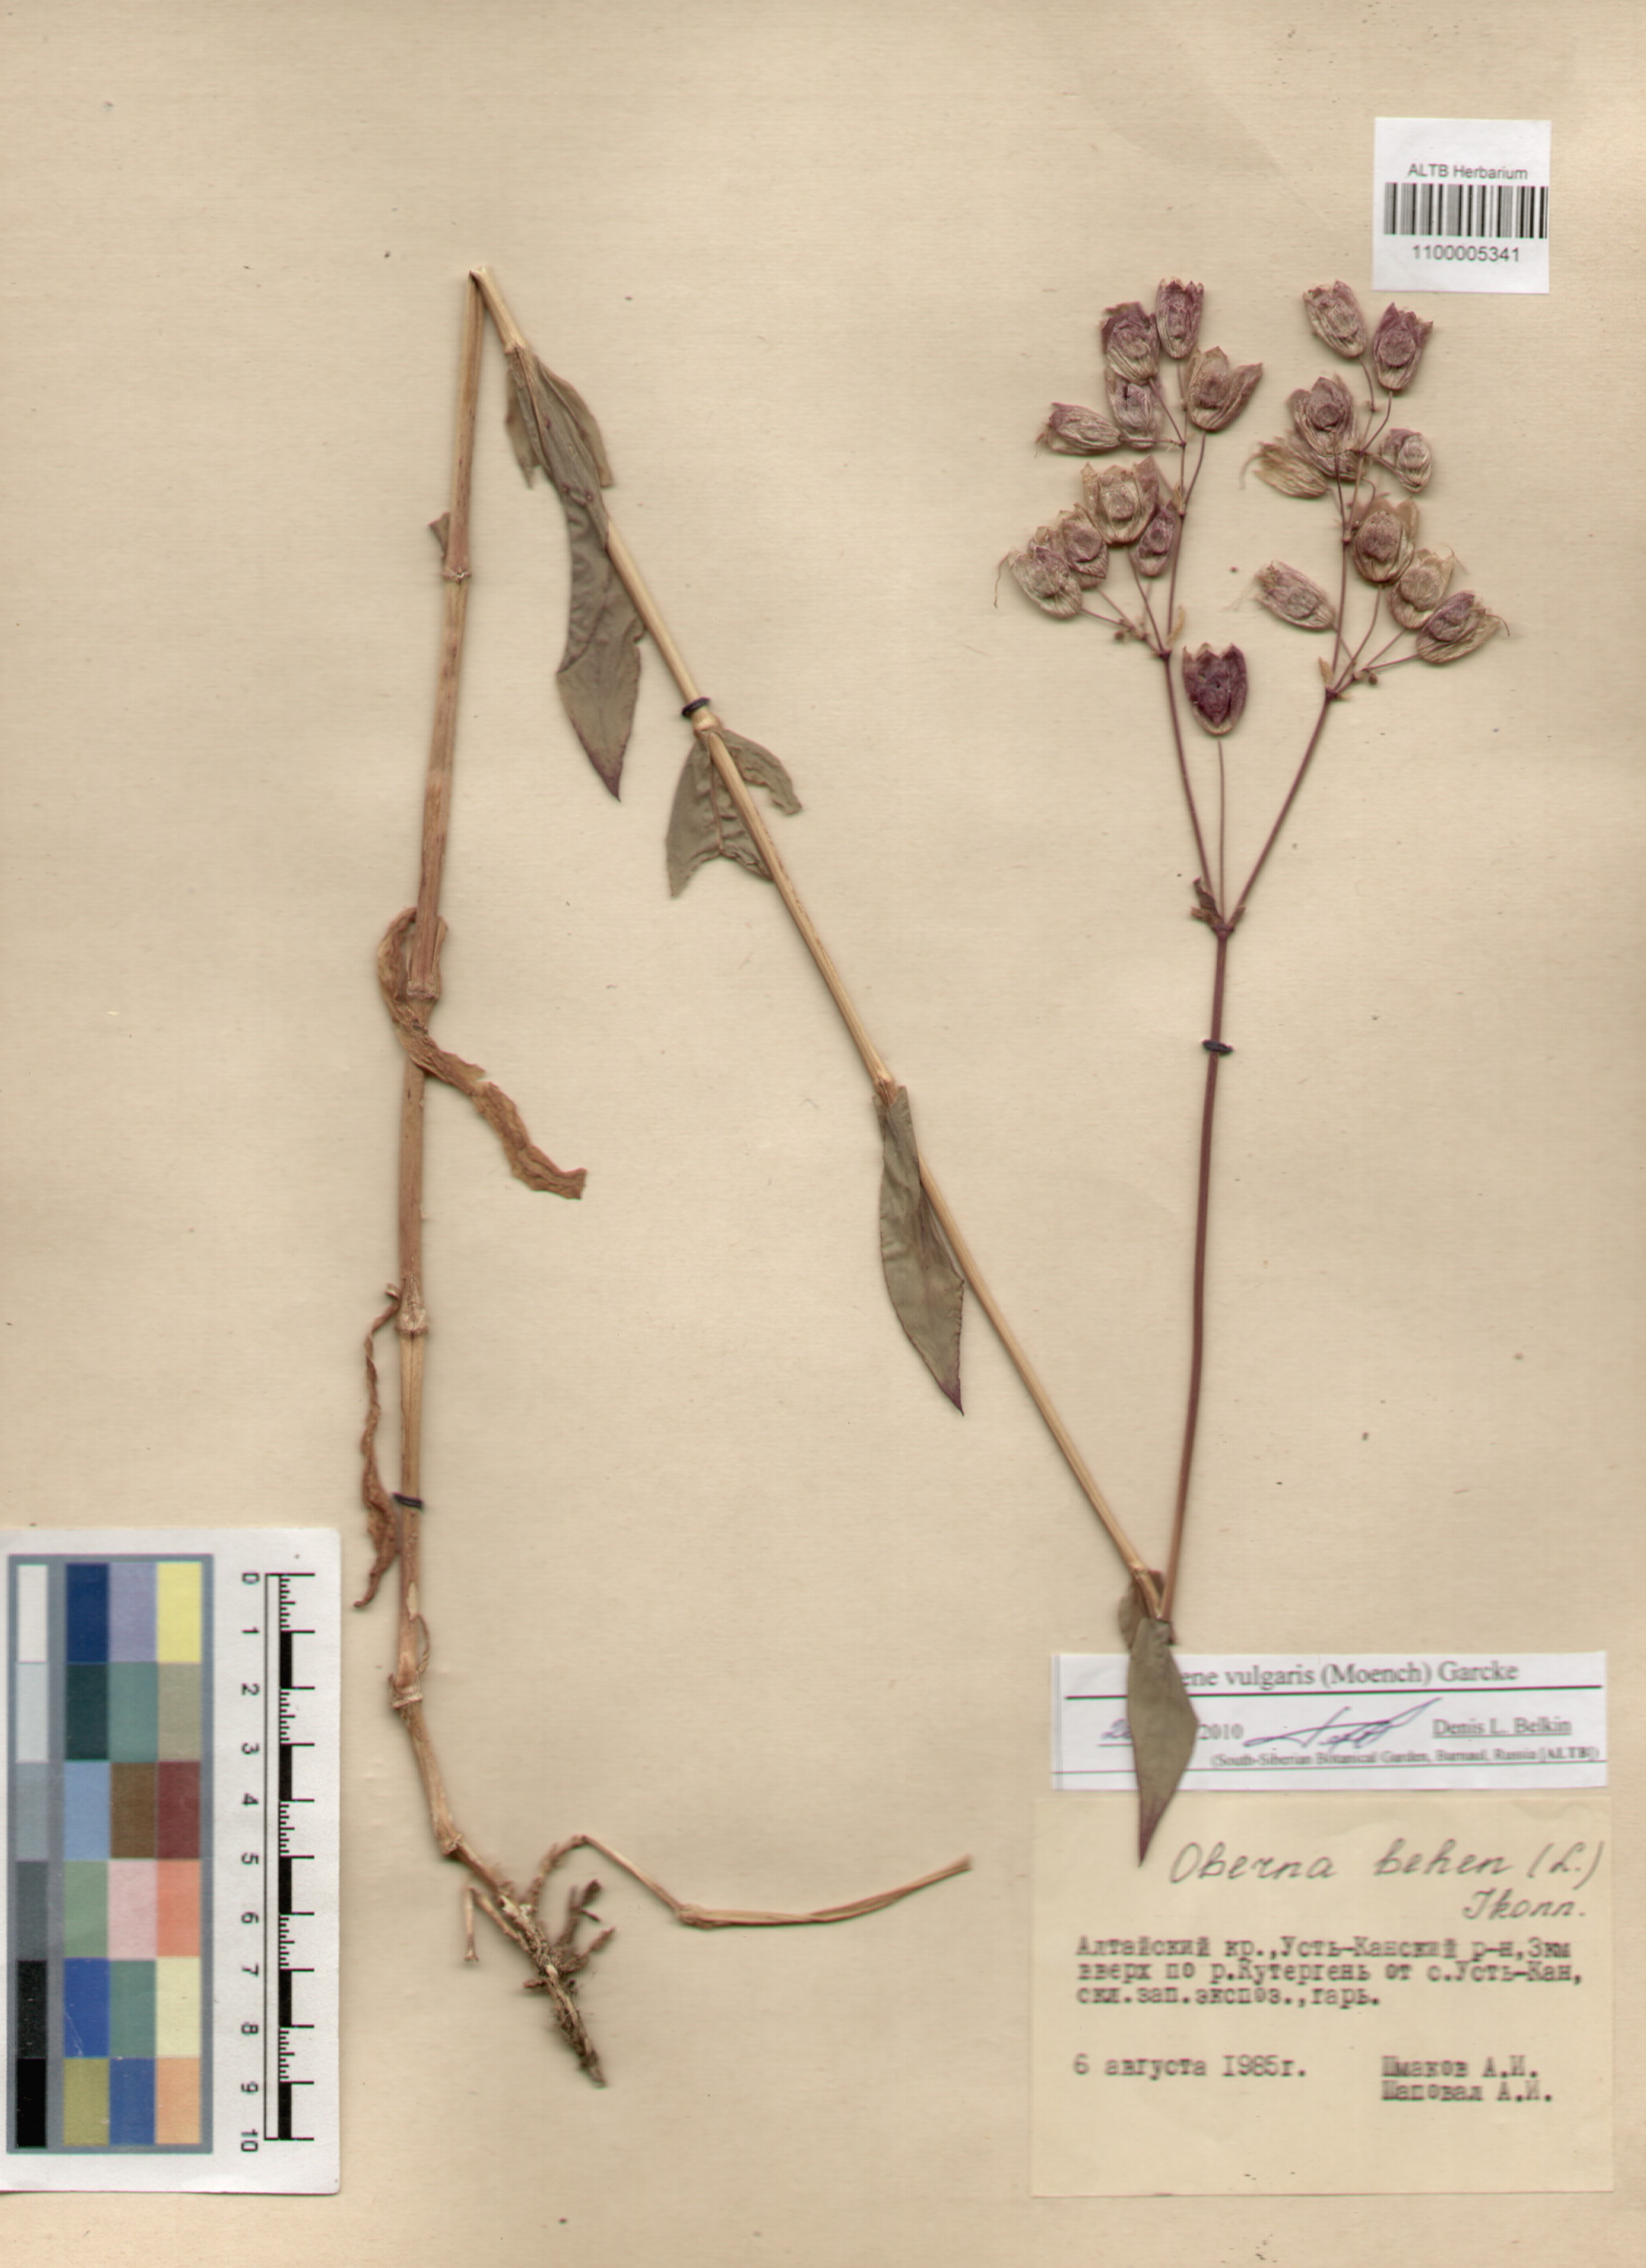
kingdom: Plantae
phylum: Tracheophyta
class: Magnoliopsida
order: Caryophyllales
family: Caryophyllaceae
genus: Silene
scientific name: Silene vulgaris
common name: Bladder campion
